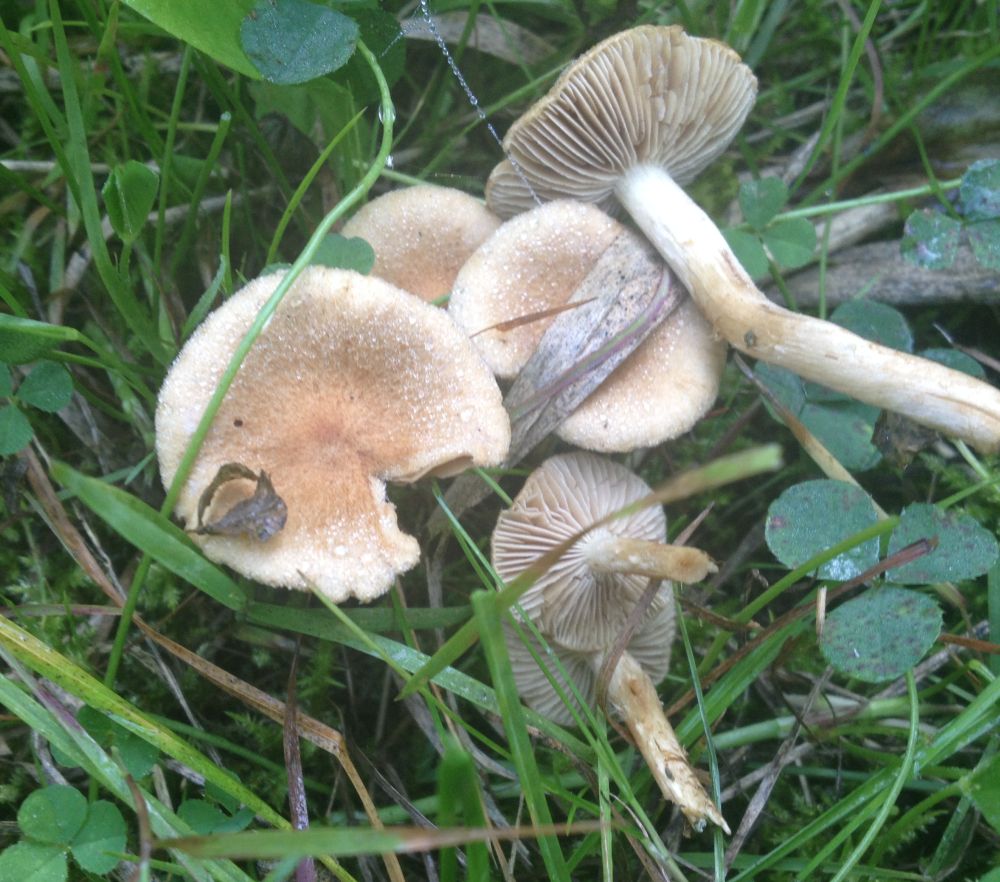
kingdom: Fungi
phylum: Basidiomycota
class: Agaricomycetes
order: Agaricales
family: Inocybaceae
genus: Inocybe
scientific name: Inocybe
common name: trævlhat
